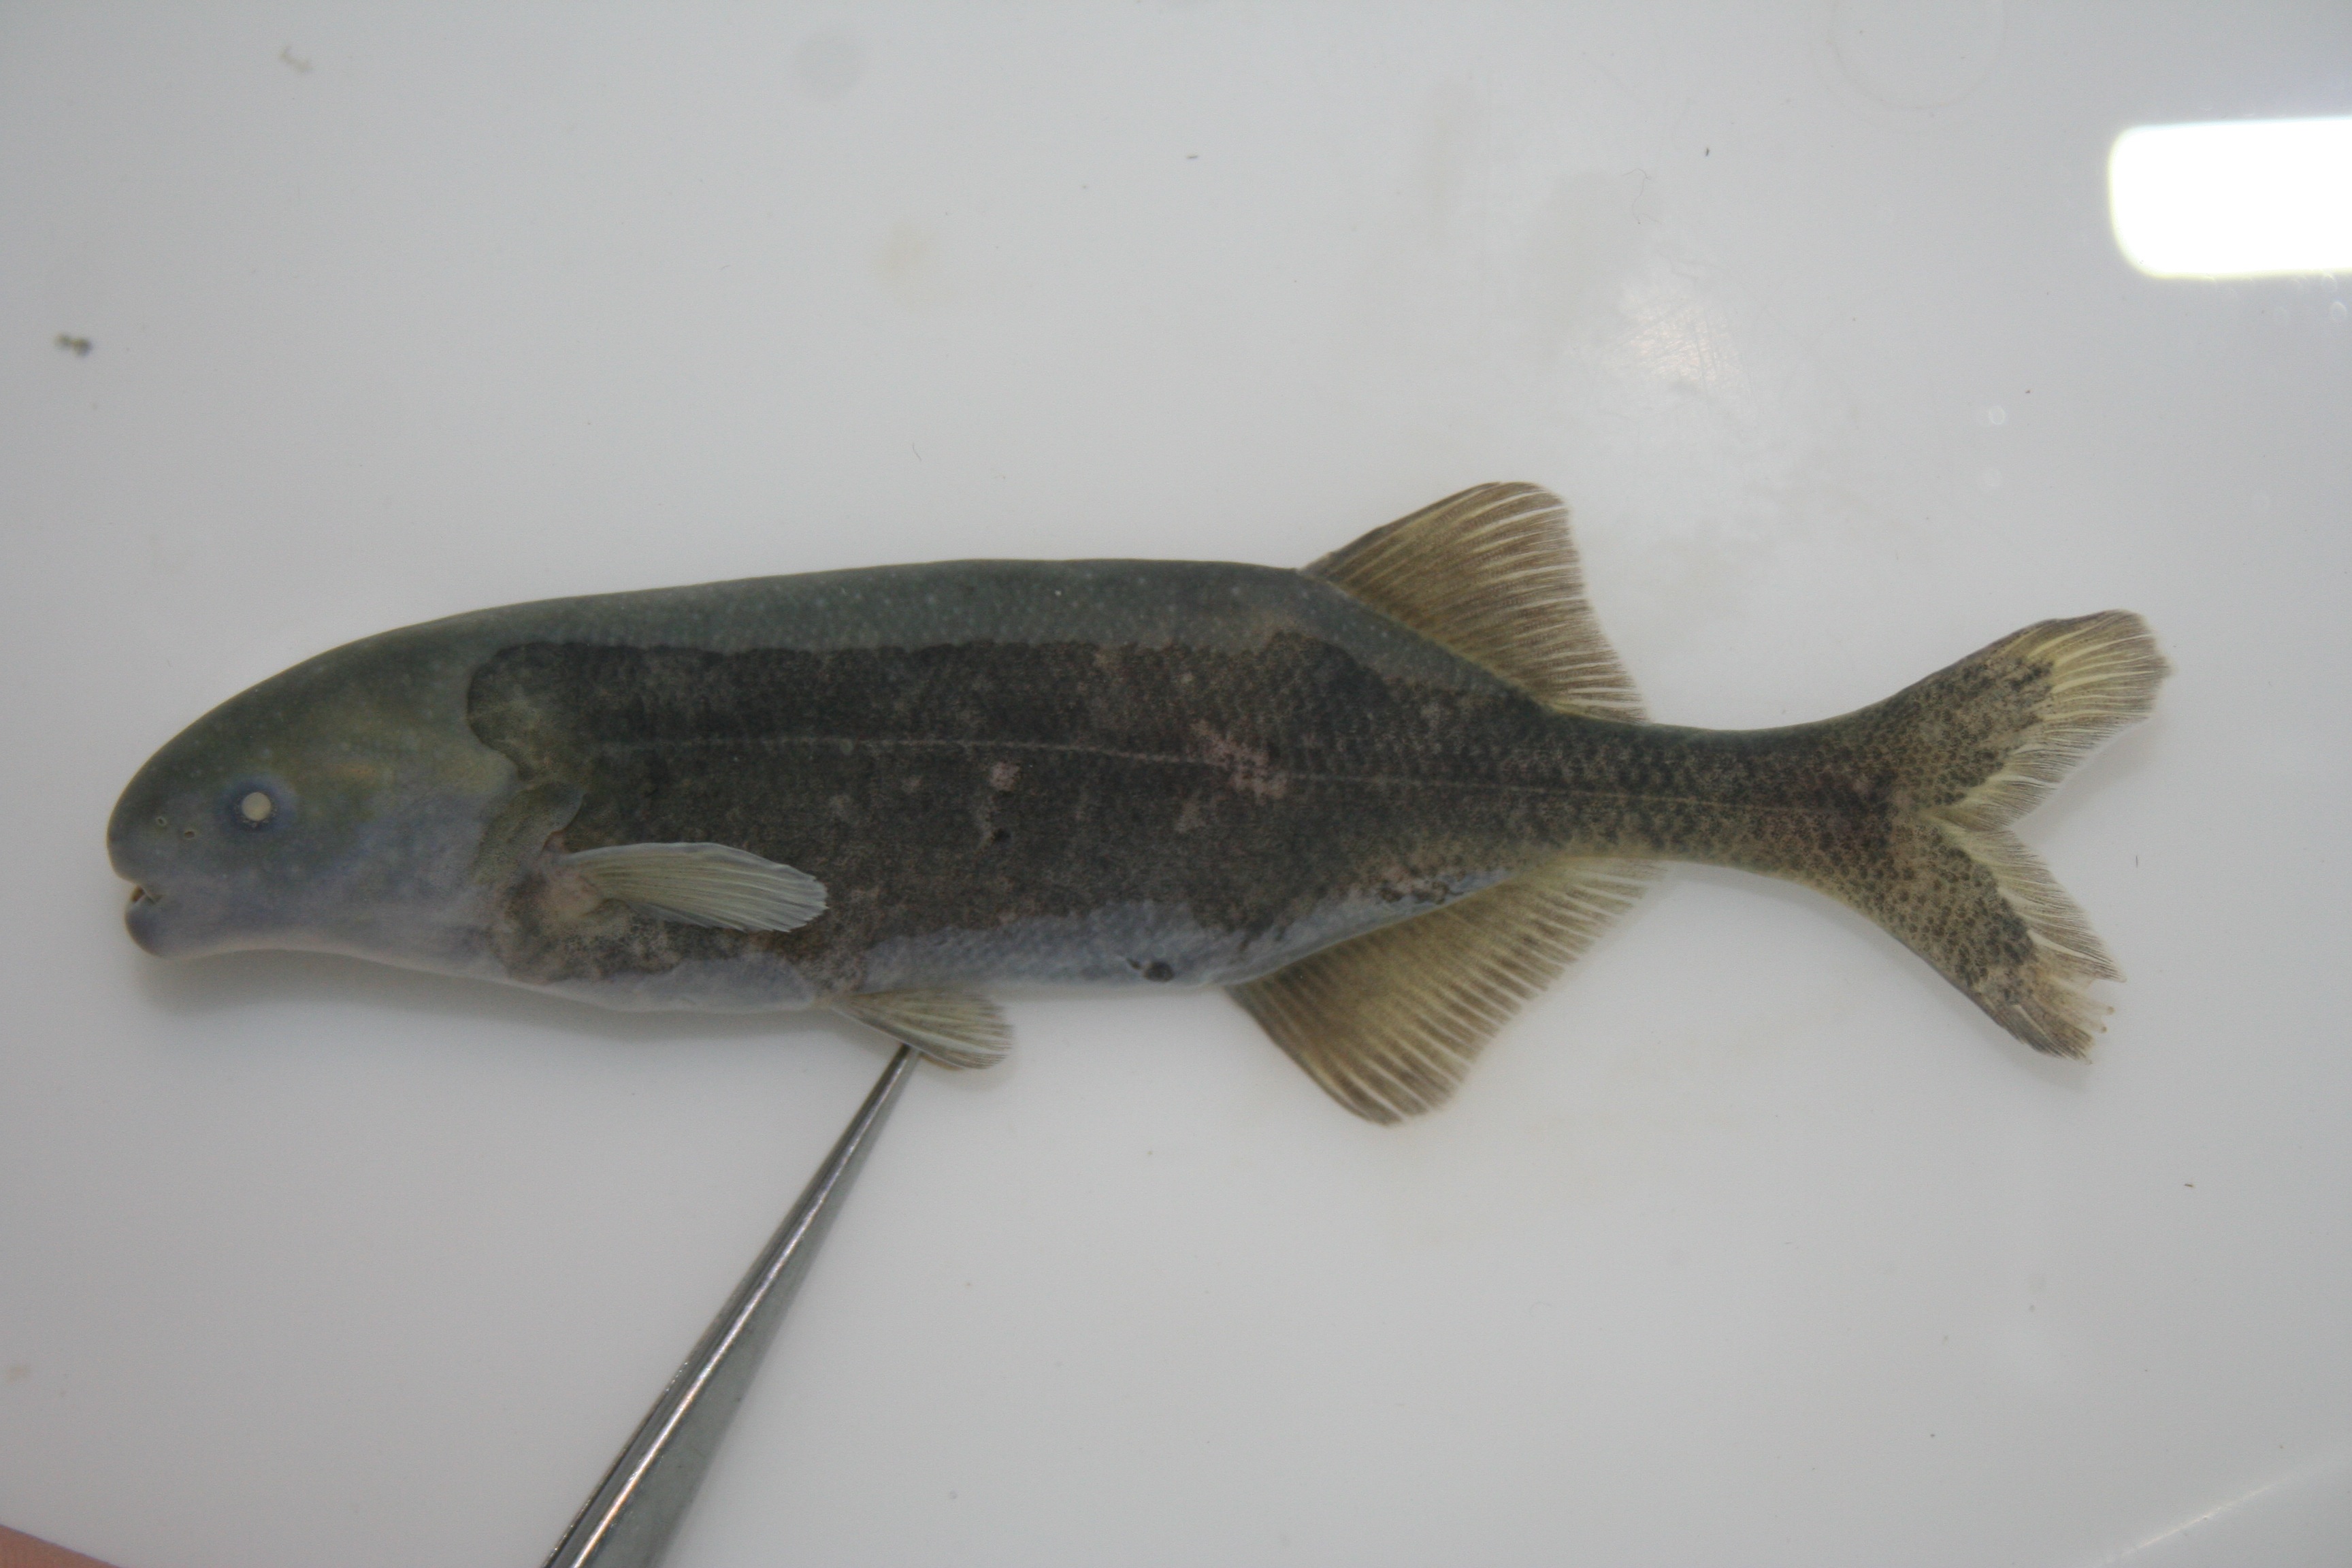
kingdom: Animalia
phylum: Chordata
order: Osteoglossiformes
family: Mormyridae
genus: Hippopotamyrus
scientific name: Hippopotamyrus
